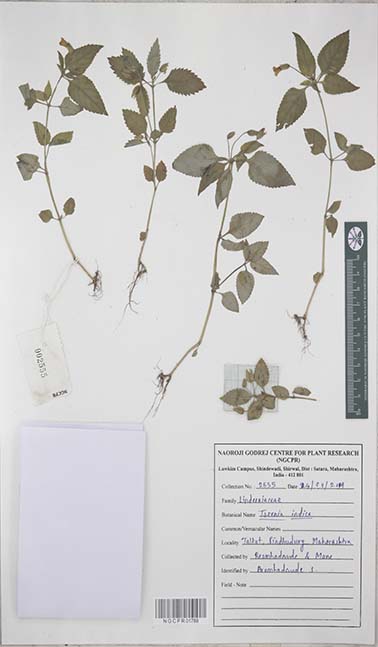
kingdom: Plantae
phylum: Tracheophyta
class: Magnoliopsida
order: Lamiales
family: Linderniaceae
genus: Torenia
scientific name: Torenia indica
